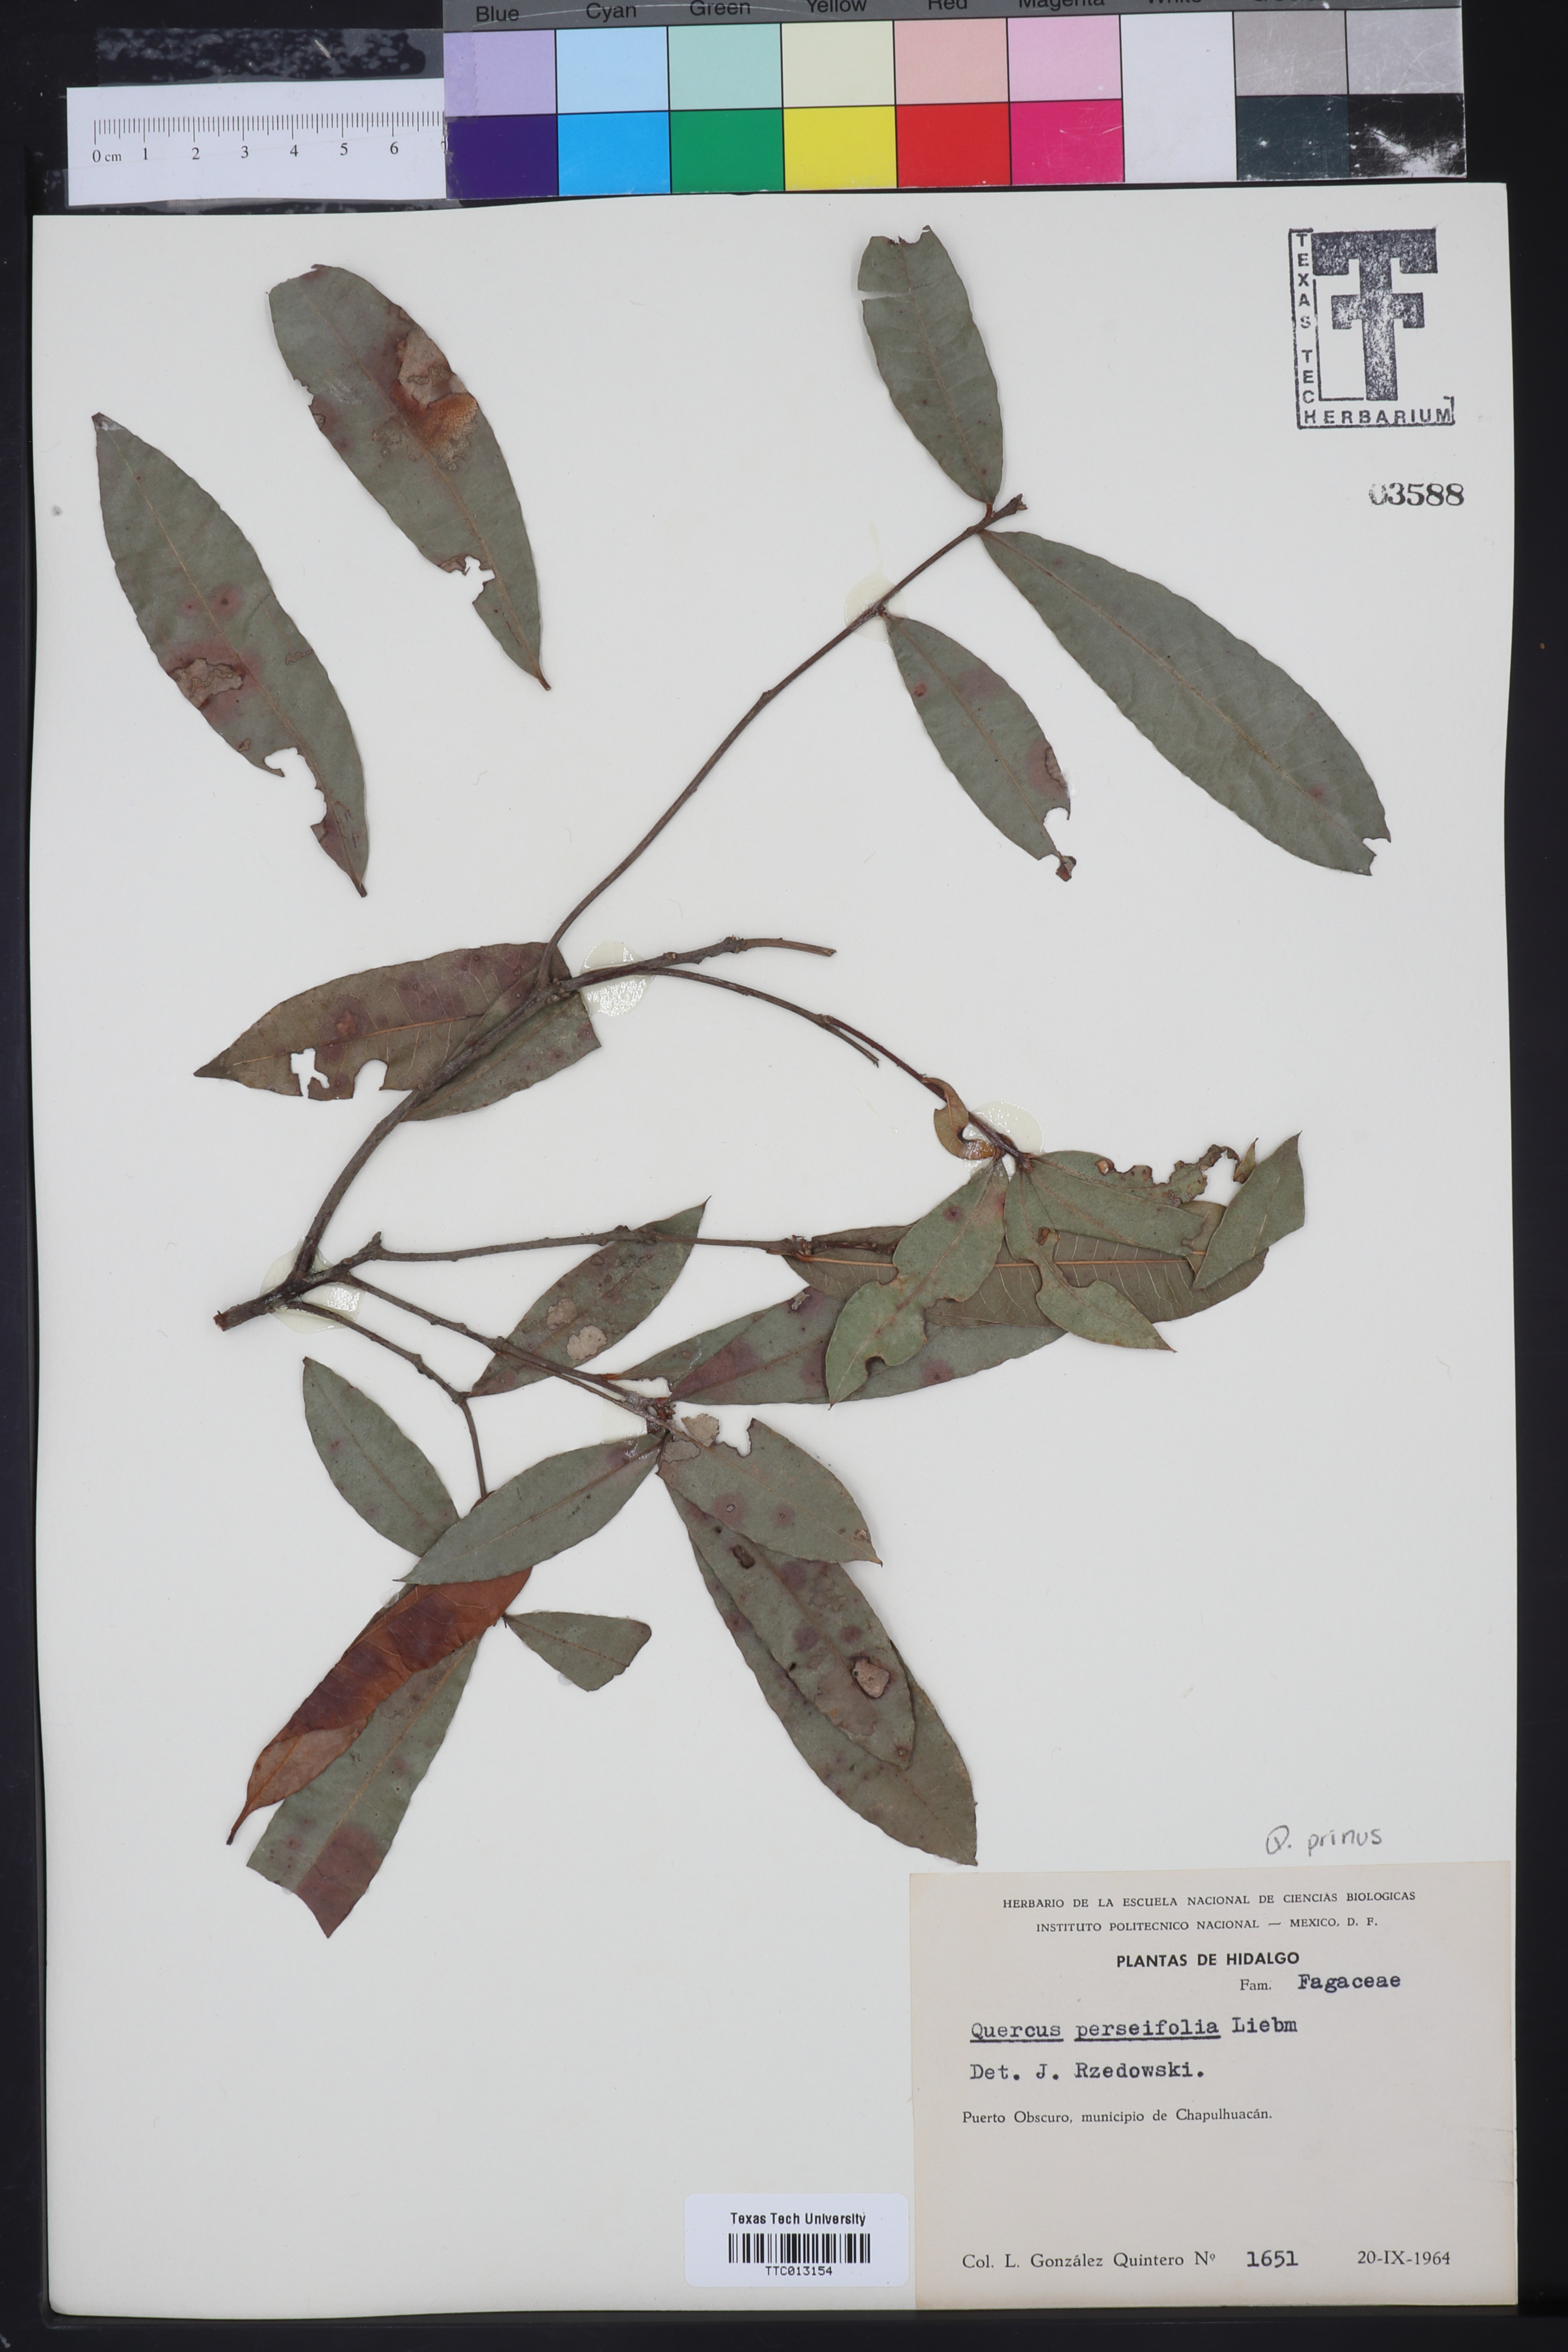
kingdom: Plantae
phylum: Tracheophyta
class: Magnoliopsida
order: Fagales
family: Fagaceae
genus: Quercus
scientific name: Quercus sapotifolia
